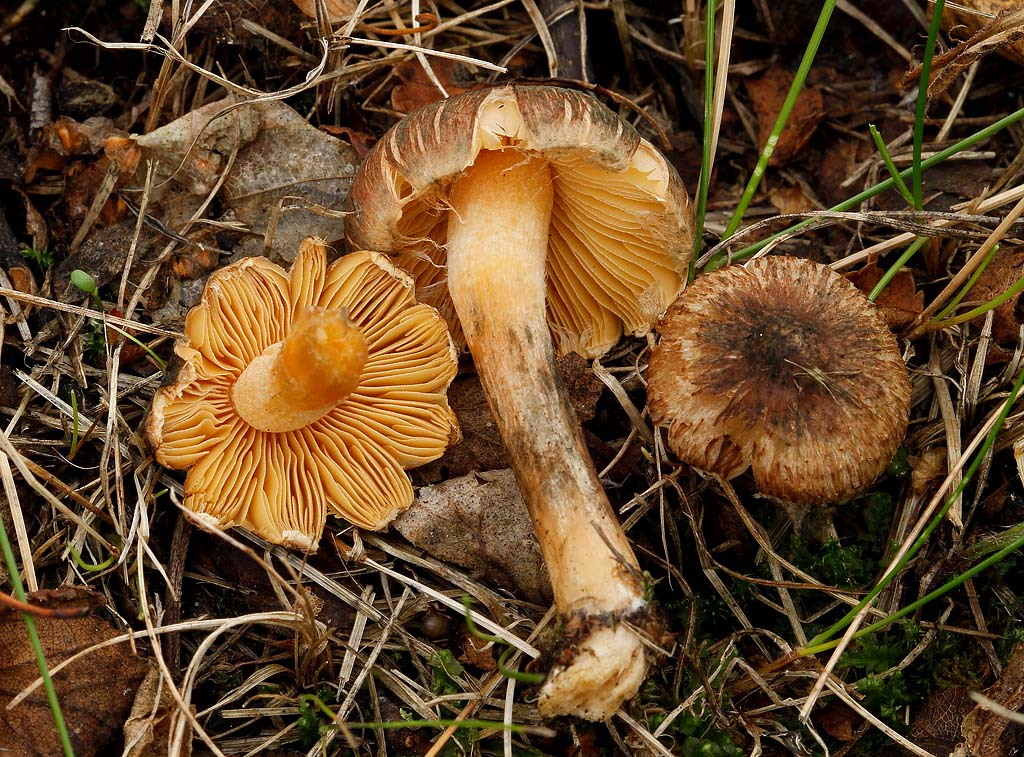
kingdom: Fungi
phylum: Basidiomycota
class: Agaricomycetes
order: Agaricales
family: Inocybaceae
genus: Inocybe
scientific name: Inocybe aurantiifolia
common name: gyldenbladet trævlhat
